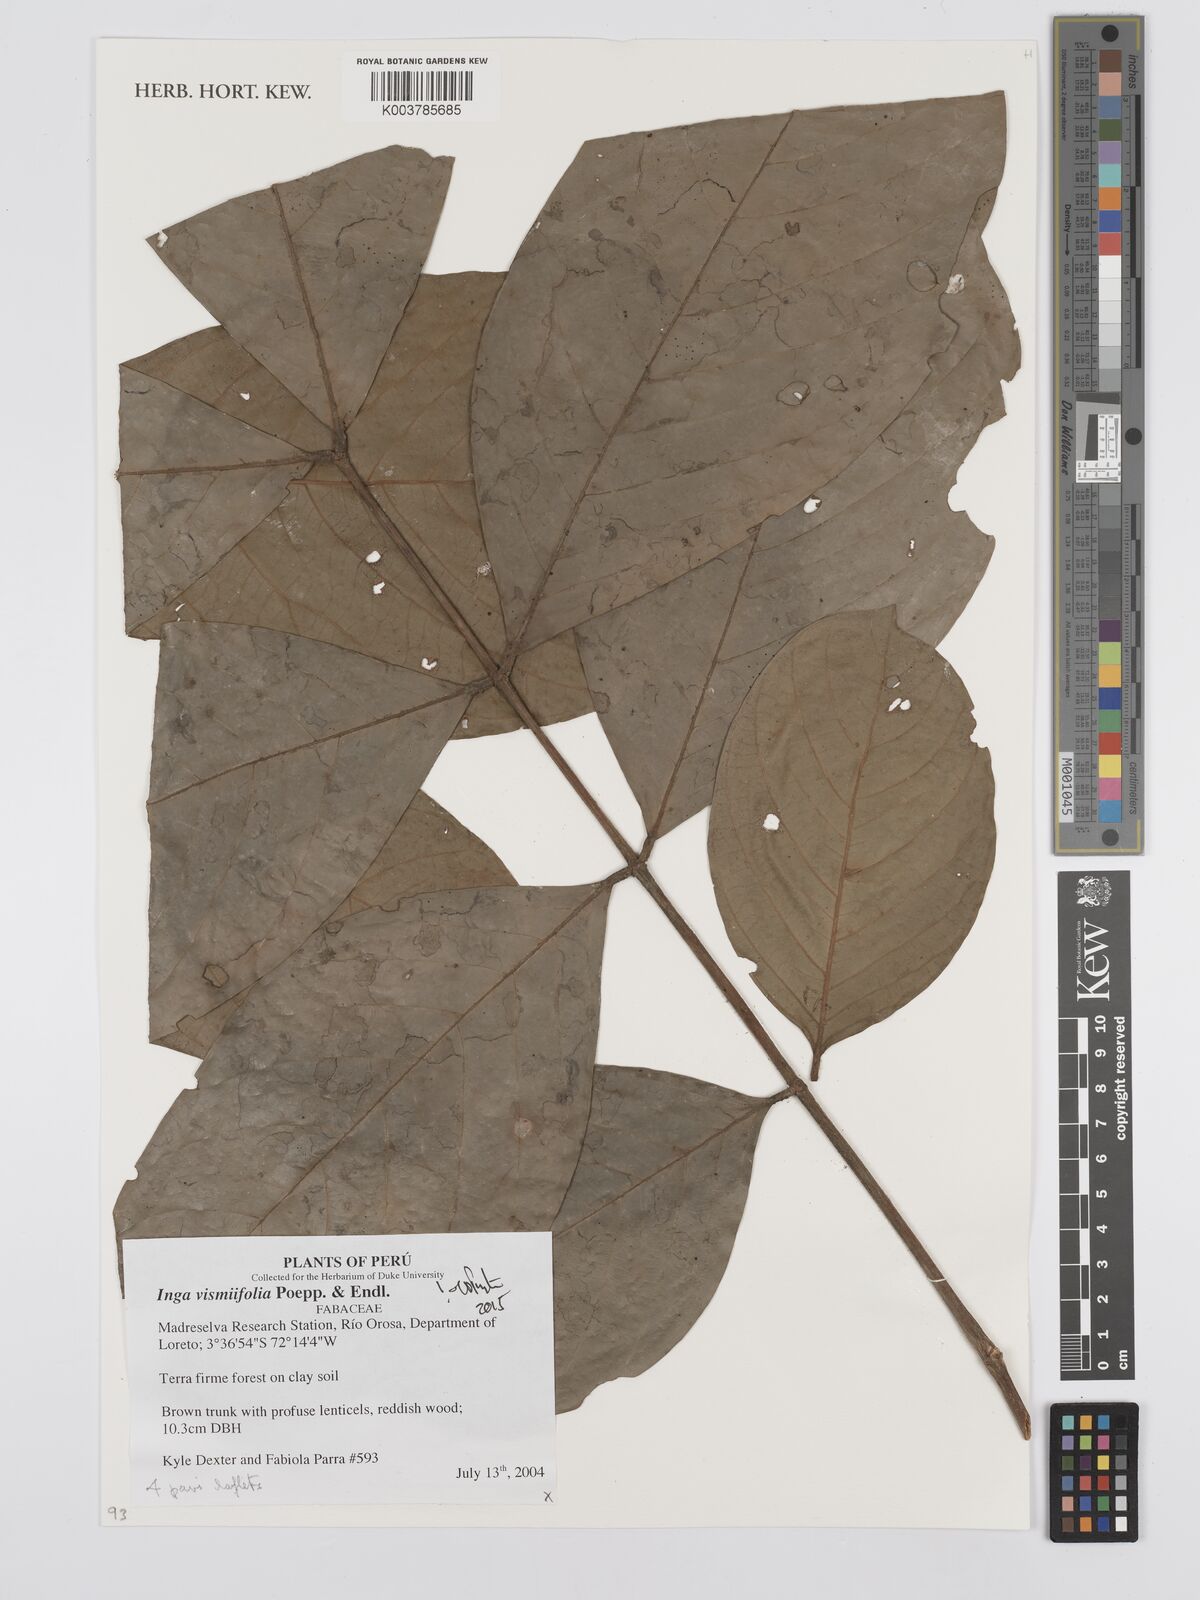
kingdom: Plantae
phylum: Tracheophyta
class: Magnoliopsida
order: Fabales
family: Fabaceae
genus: Inga
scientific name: Inga vismiifolia
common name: Howler monkey inga
